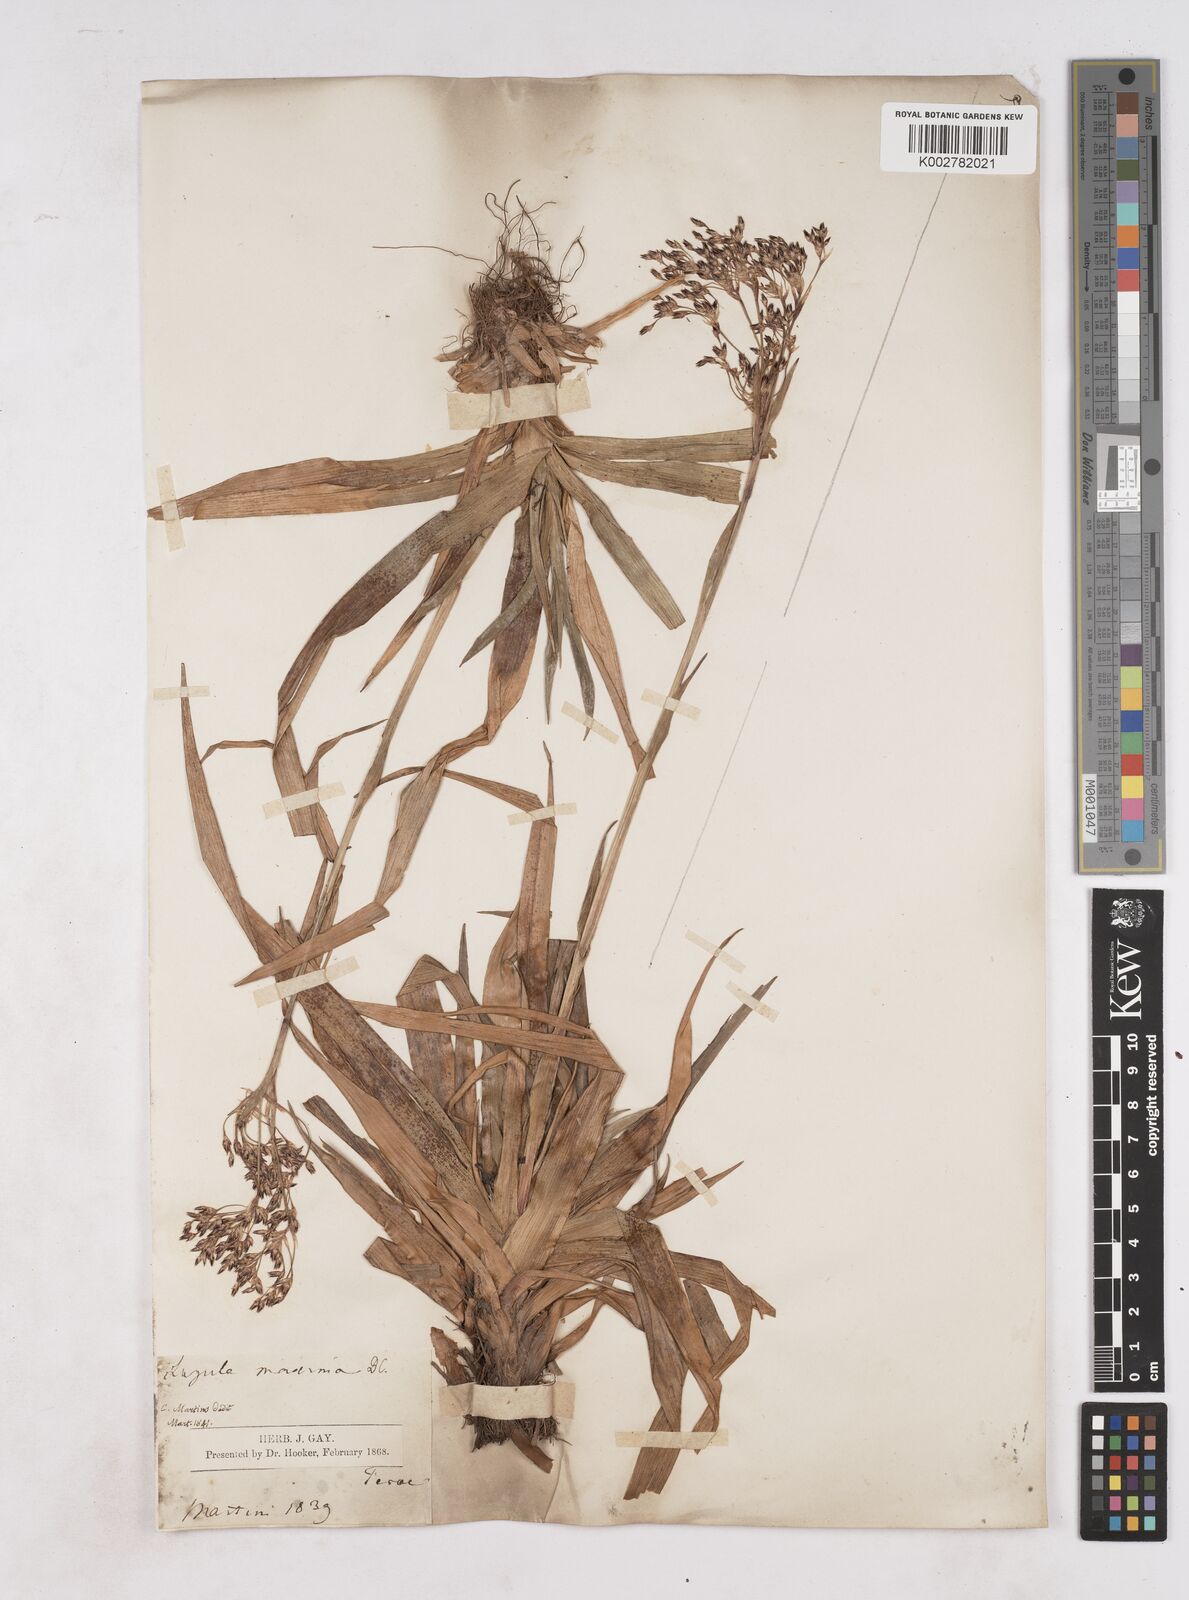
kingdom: Plantae
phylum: Tracheophyta
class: Liliopsida
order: Poales
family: Juncaceae
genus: Luzula
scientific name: Luzula sylvatica
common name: Great wood-rush
